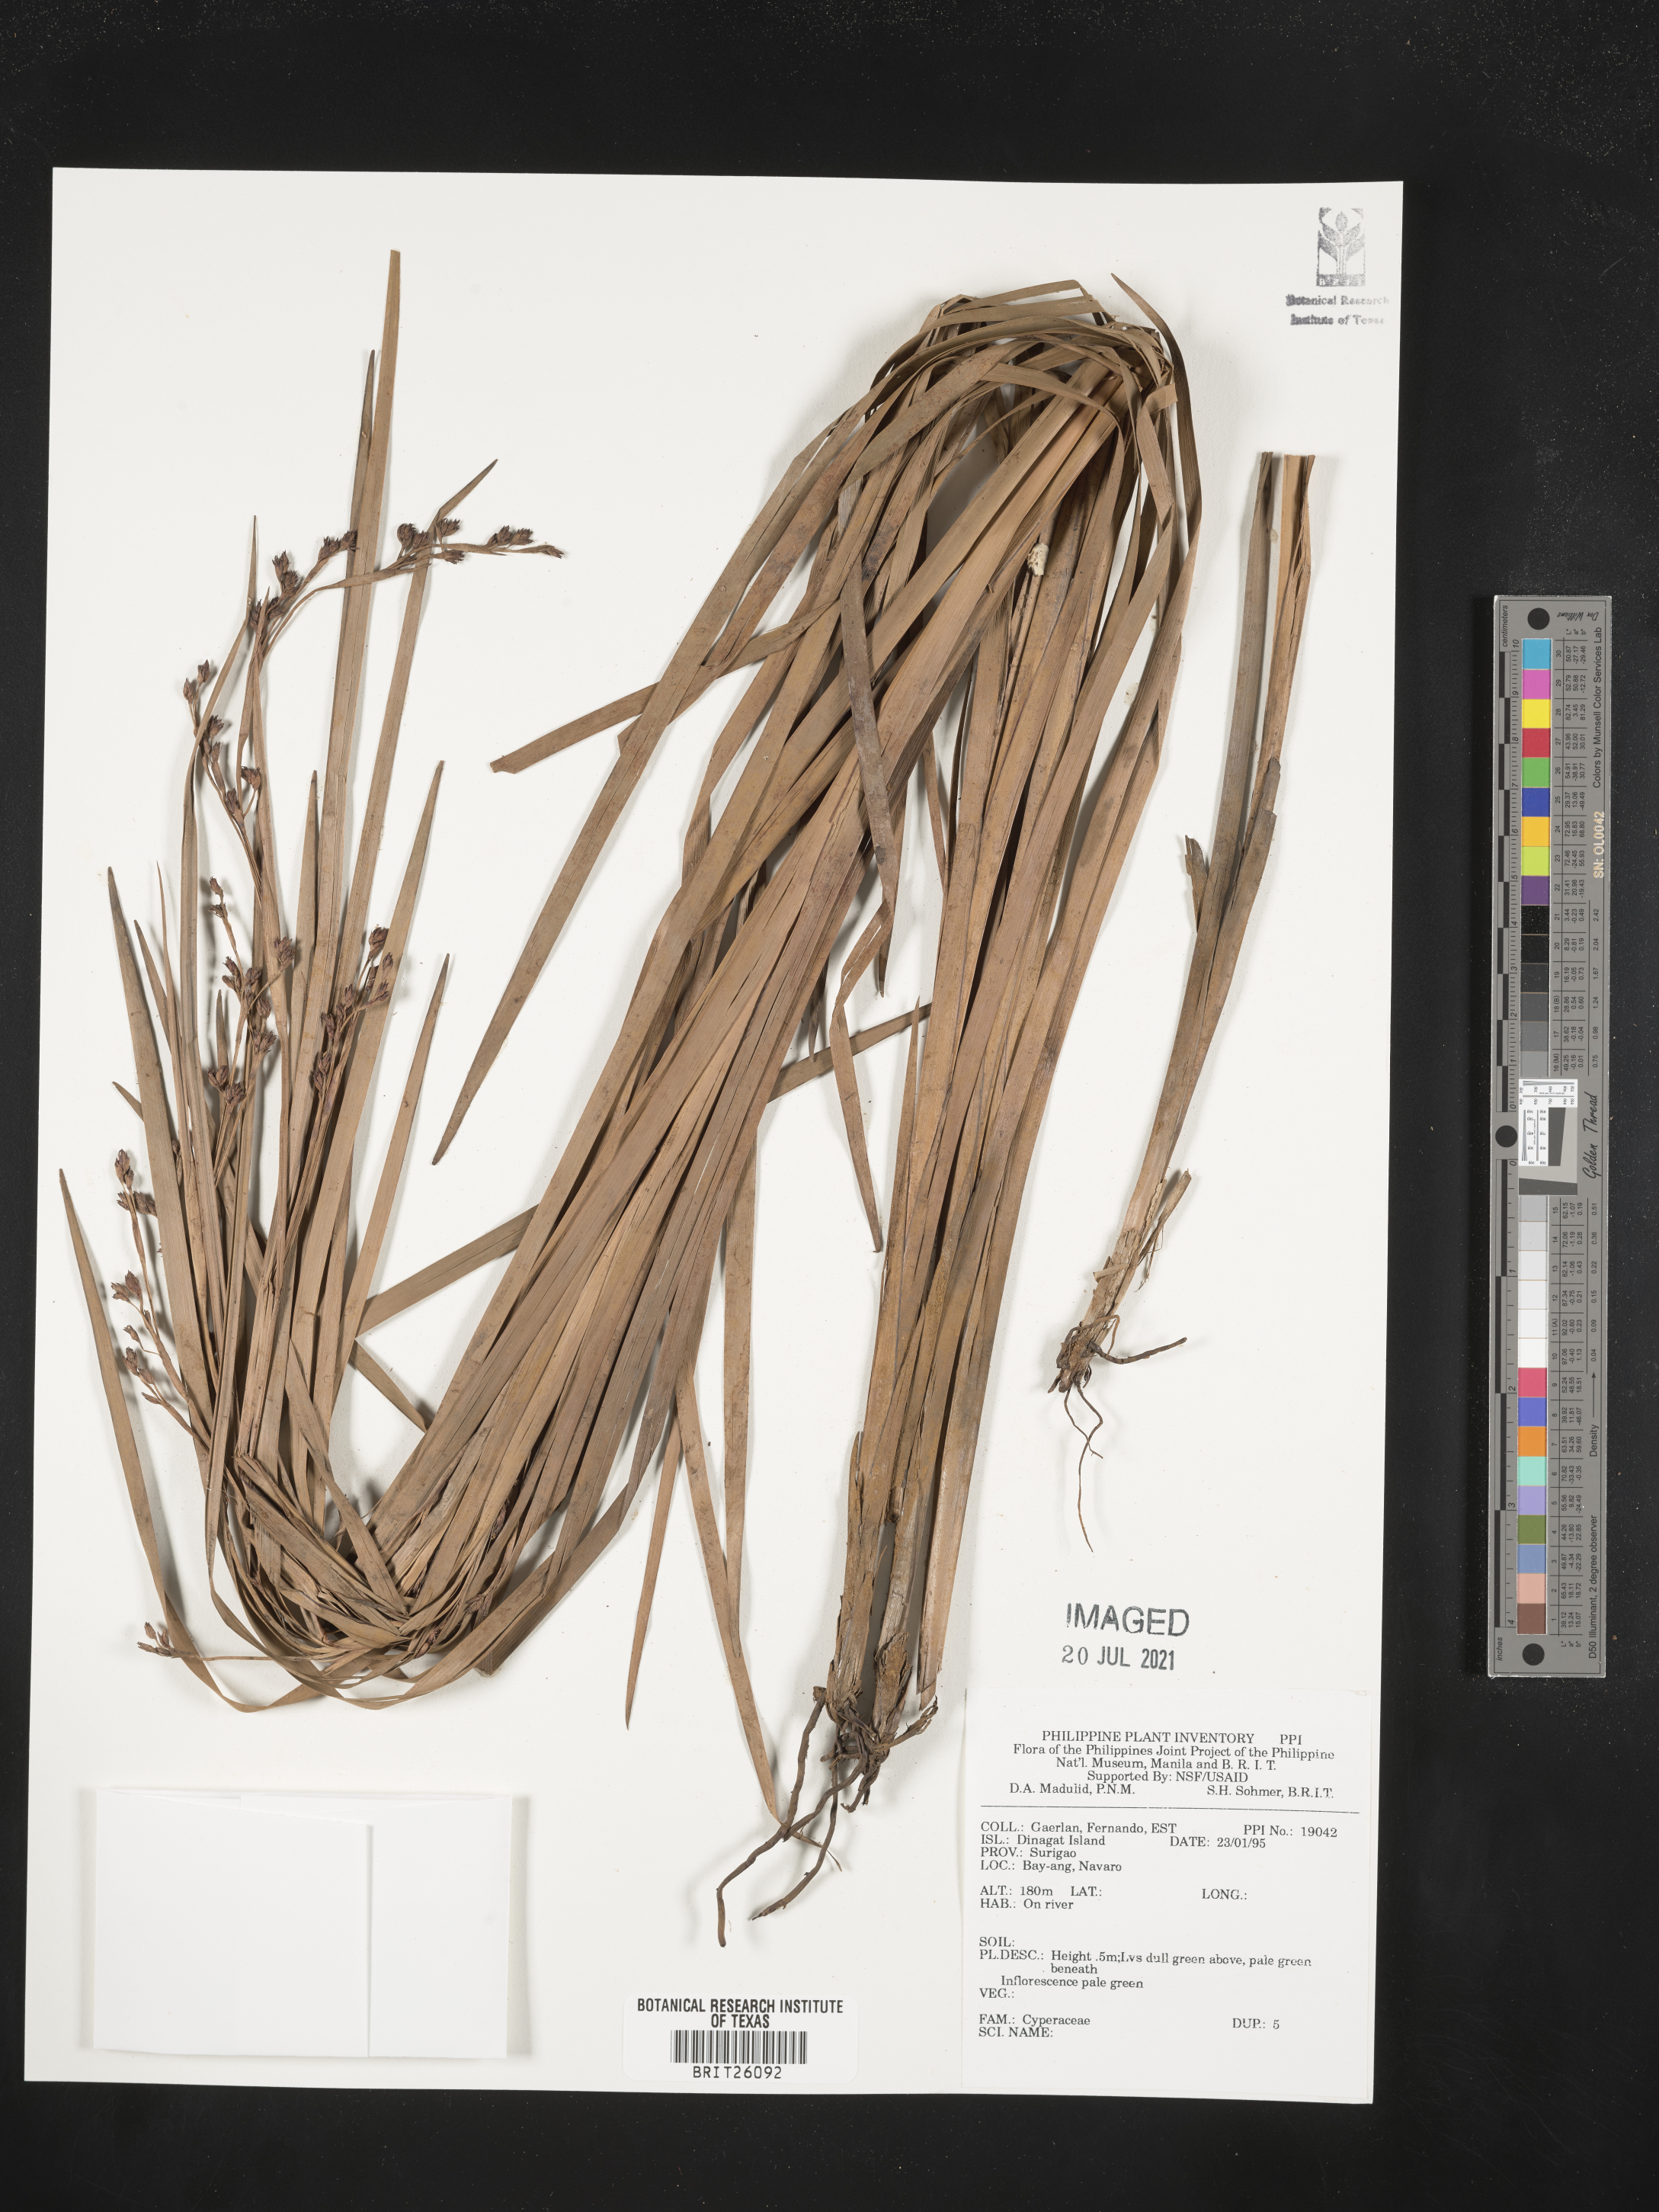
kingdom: Plantae
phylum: Tracheophyta
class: Liliopsida
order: Poales
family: Cyperaceae
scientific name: Cyperaceae
